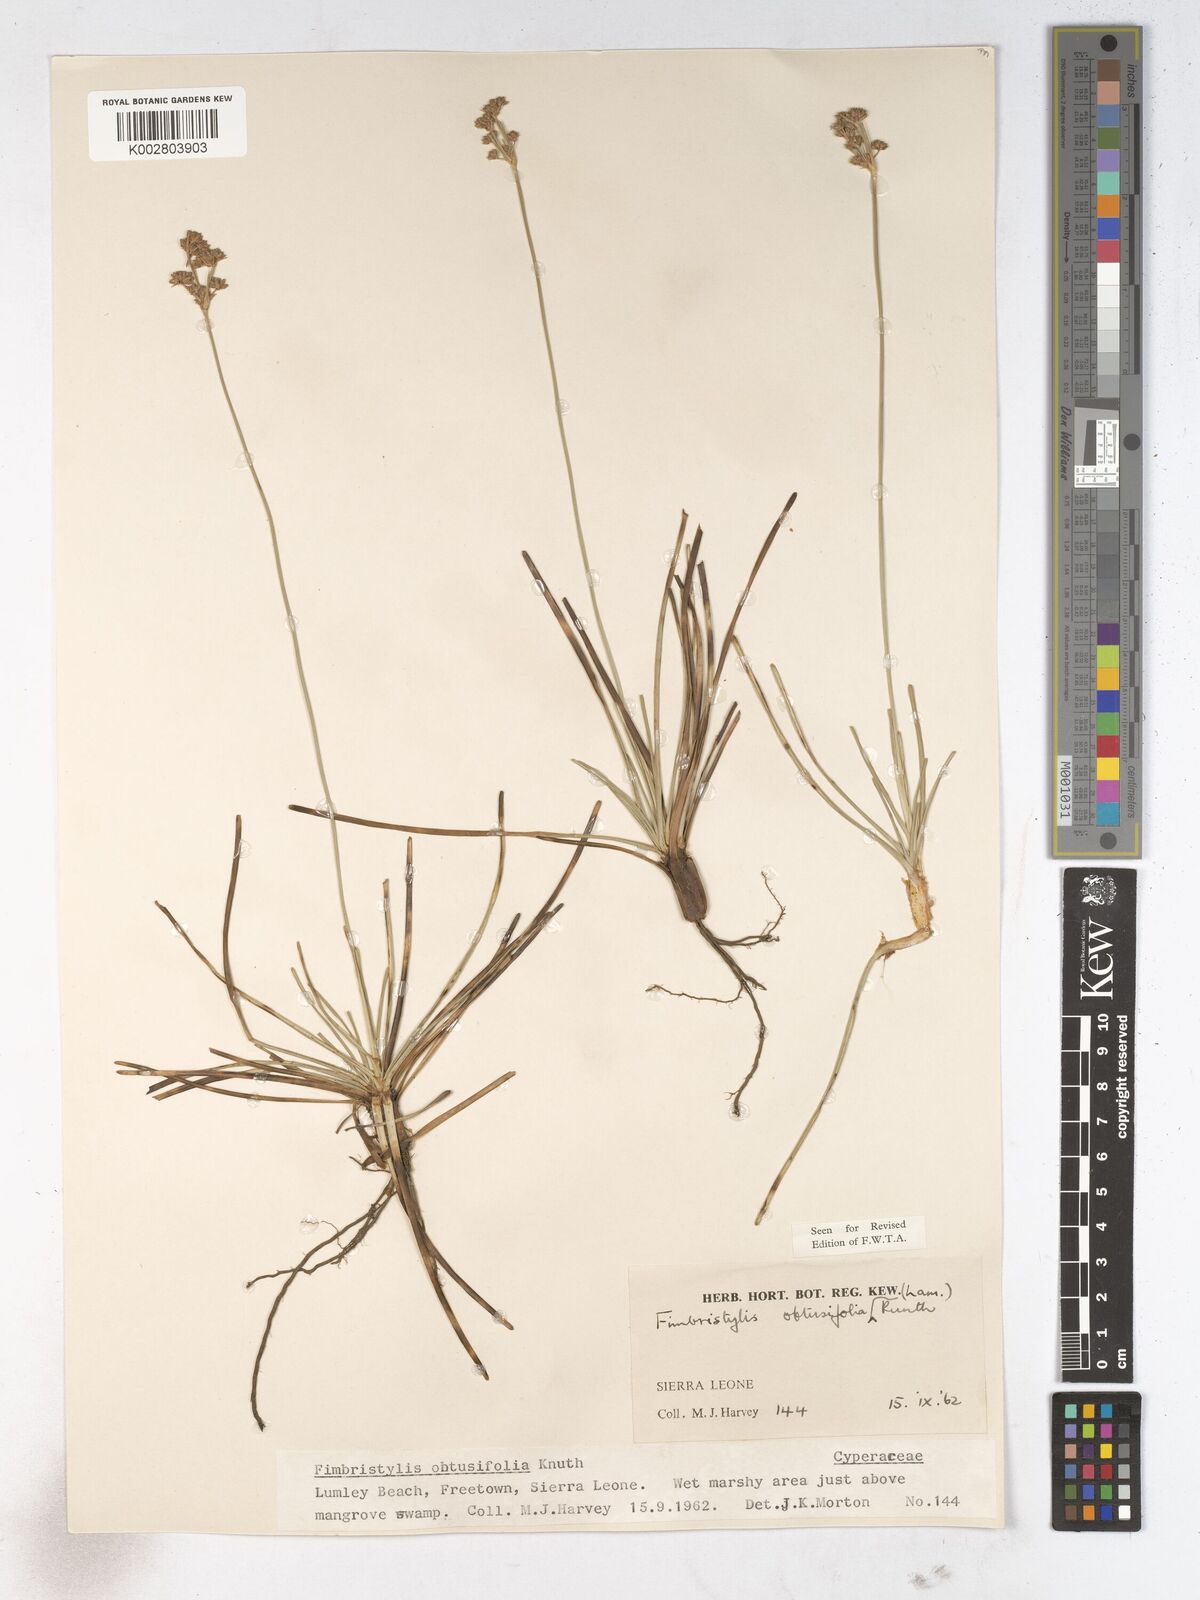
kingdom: Plantae
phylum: Tracheophyta
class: Liliopsida
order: Poales
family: Cyperaceae
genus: Fimbristylis
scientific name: Fimbristylis cymosa
